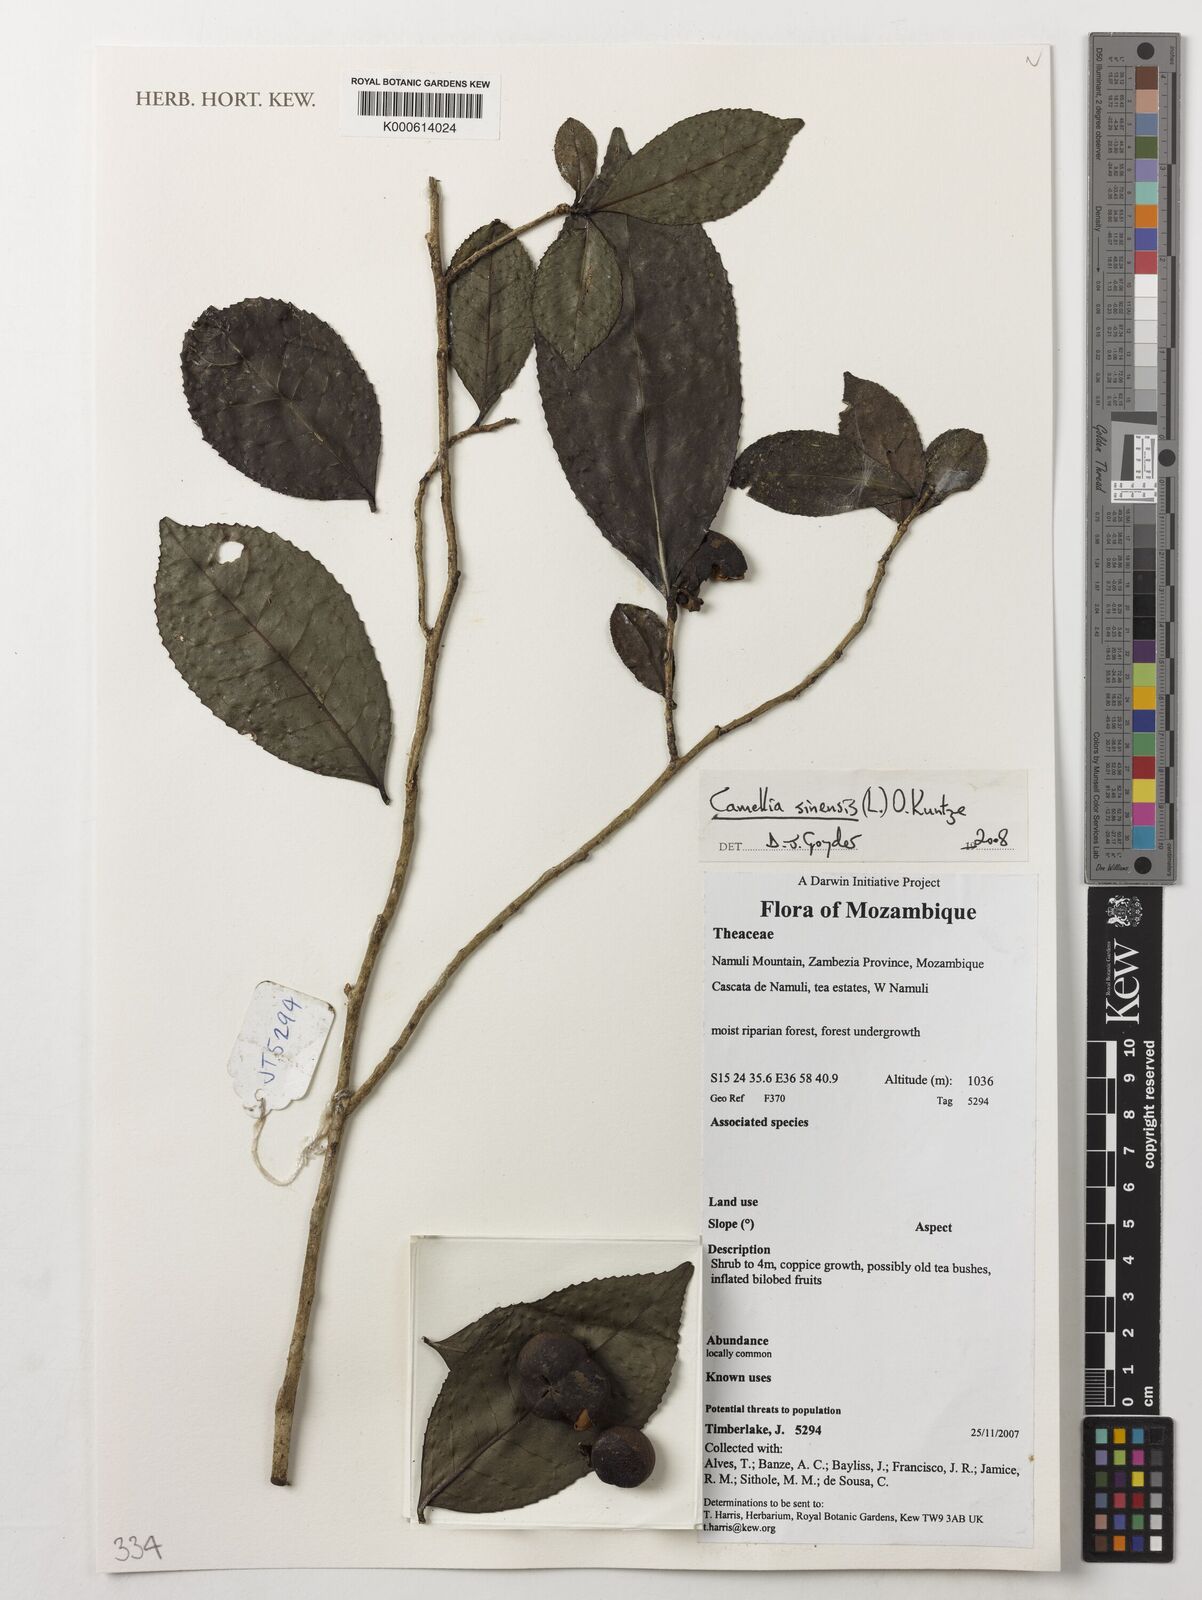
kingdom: Plantae
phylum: Tracheophyta
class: Magnoliopsida
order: Ericales
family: Theaceae
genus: Camellia
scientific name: Camellia sinensis
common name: Tea
